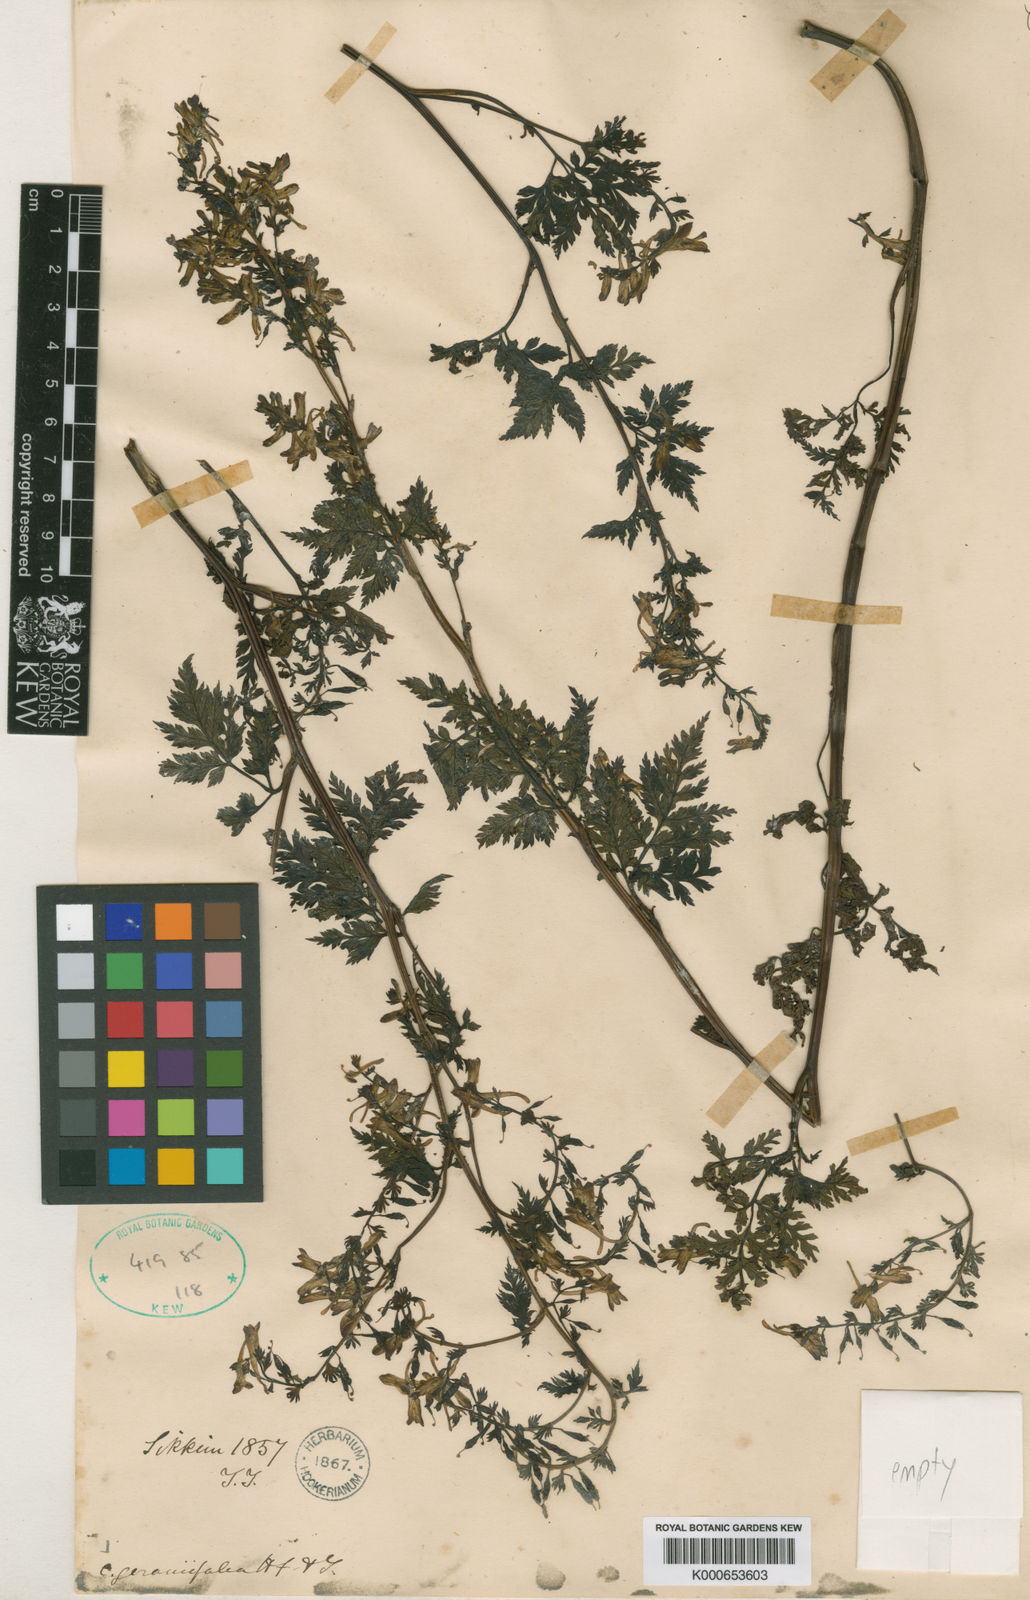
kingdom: Plantae
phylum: Tracheophyta
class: Magnoliopsida
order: Ranunculales
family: Papaveraceae
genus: Corydalis
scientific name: Corydalis geraniifolia
